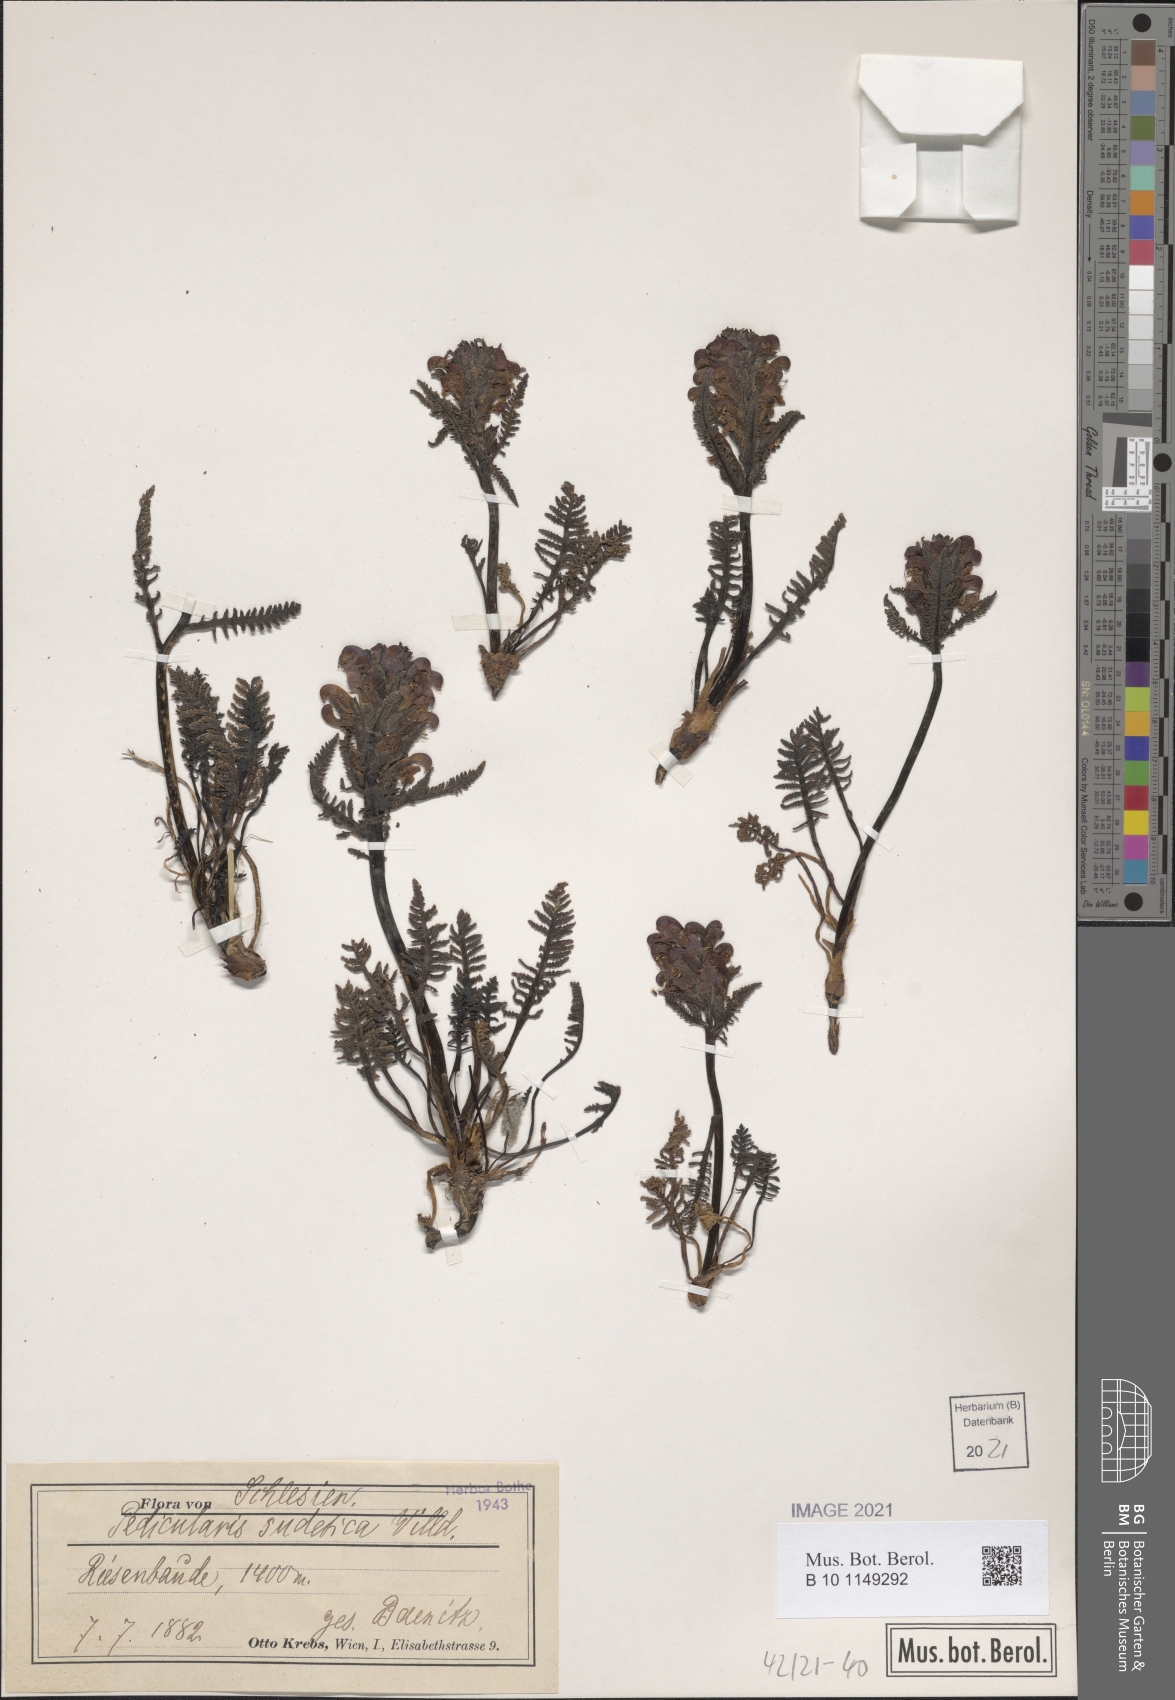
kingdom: Plantae
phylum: Tracheophyta
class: Magnoliopsida
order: Lamiales
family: Orobanchaceae
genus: Pedicularis
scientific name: Pedicularis sudetica
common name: Sudeten lousewort
